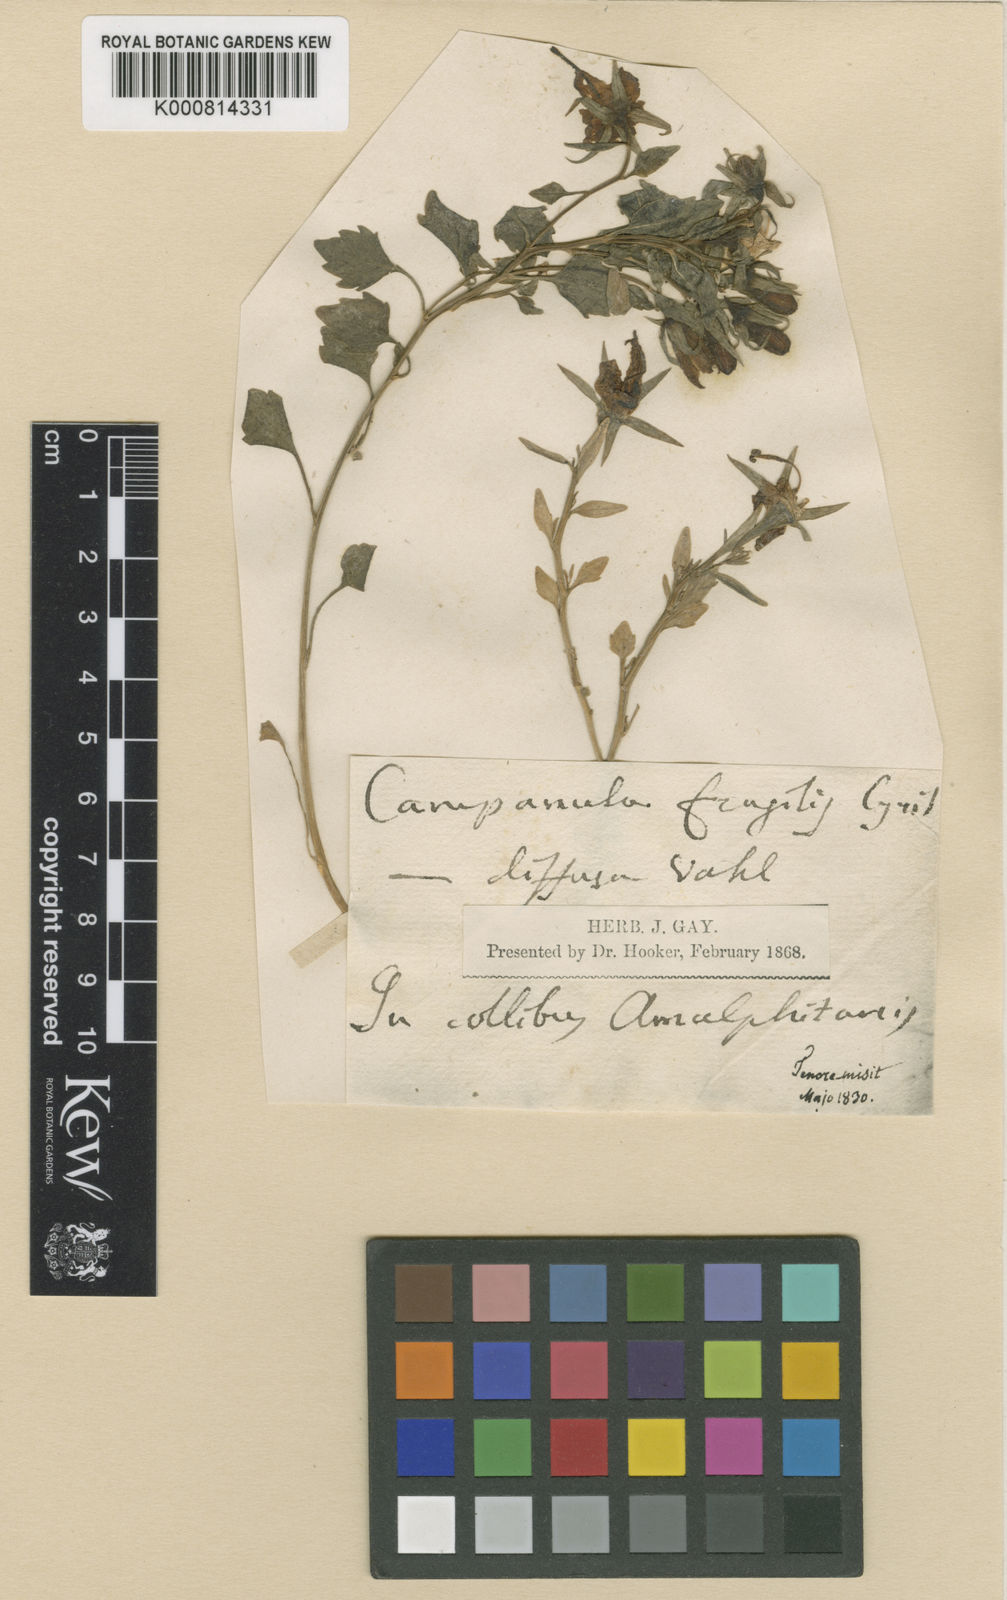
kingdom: Plantae
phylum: Tracheophyta
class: Magnoliopsida
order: Asterales
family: Campanulaceae
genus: Campanula
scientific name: Campanula fragilis
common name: Italian bellflower
